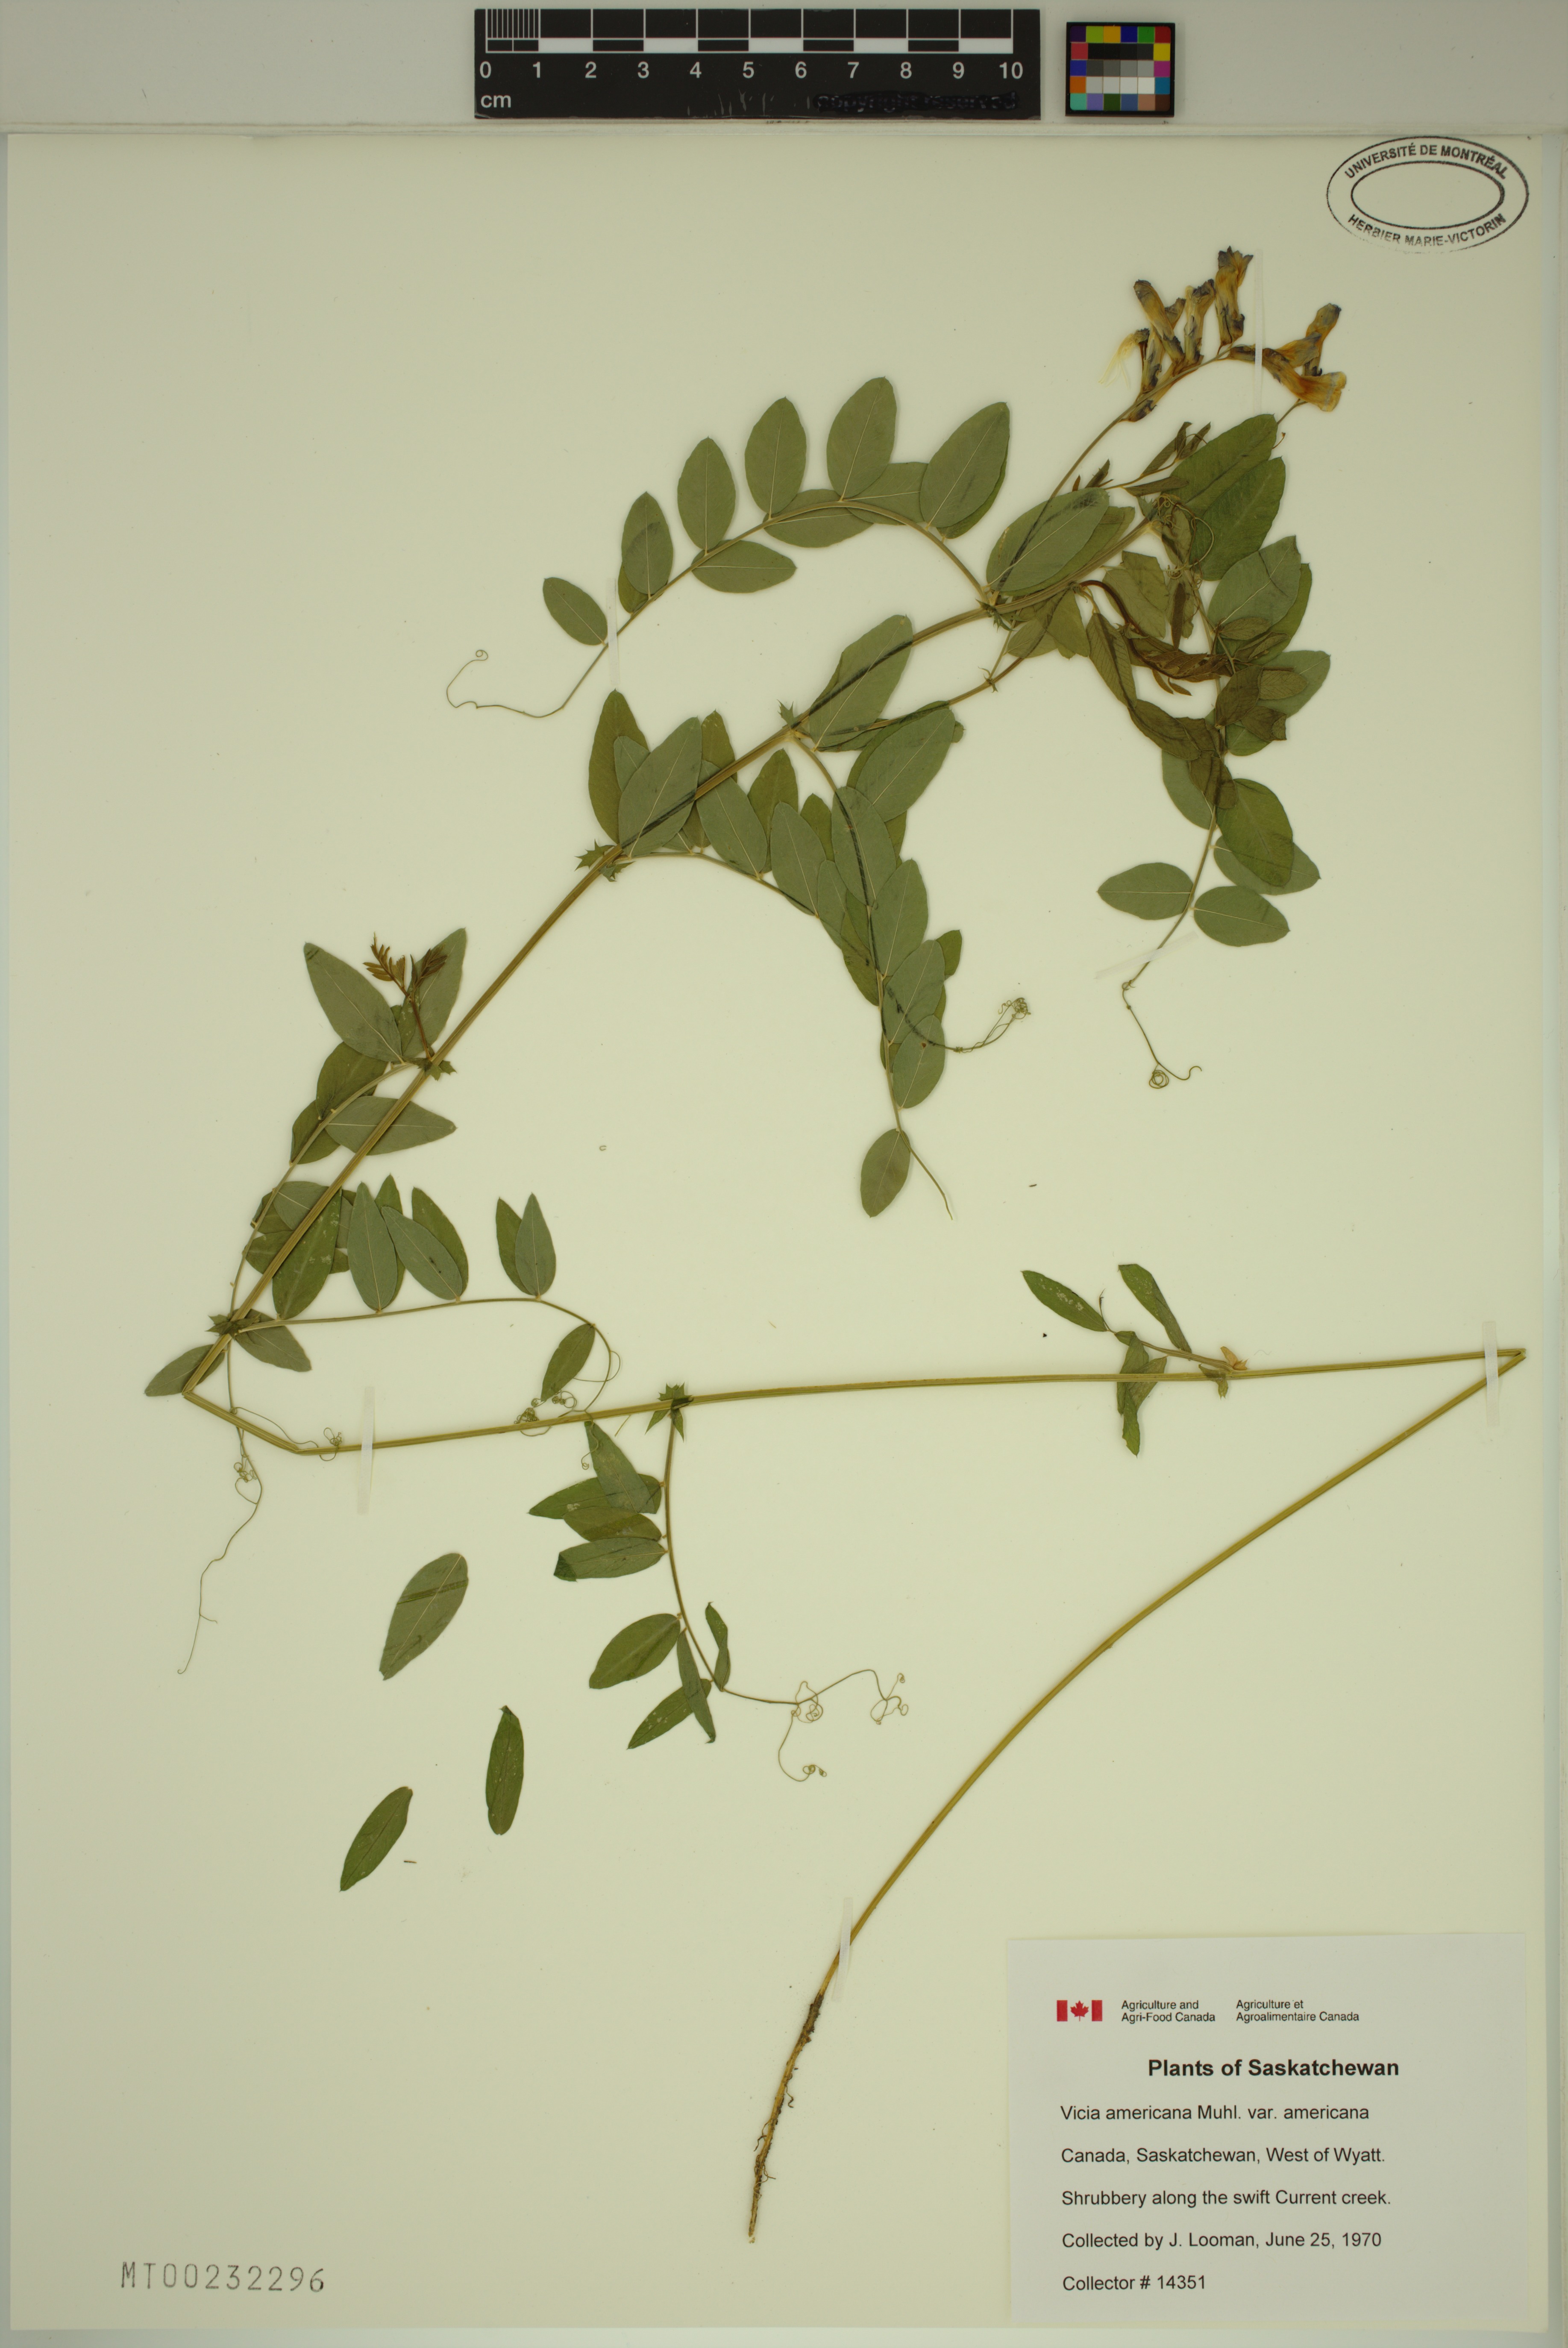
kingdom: Plantae
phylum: Tracheophyta
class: Magnoliopsida
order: Fabales
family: Fabaceae
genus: Vicia
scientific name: Vicia americana
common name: American vetch
